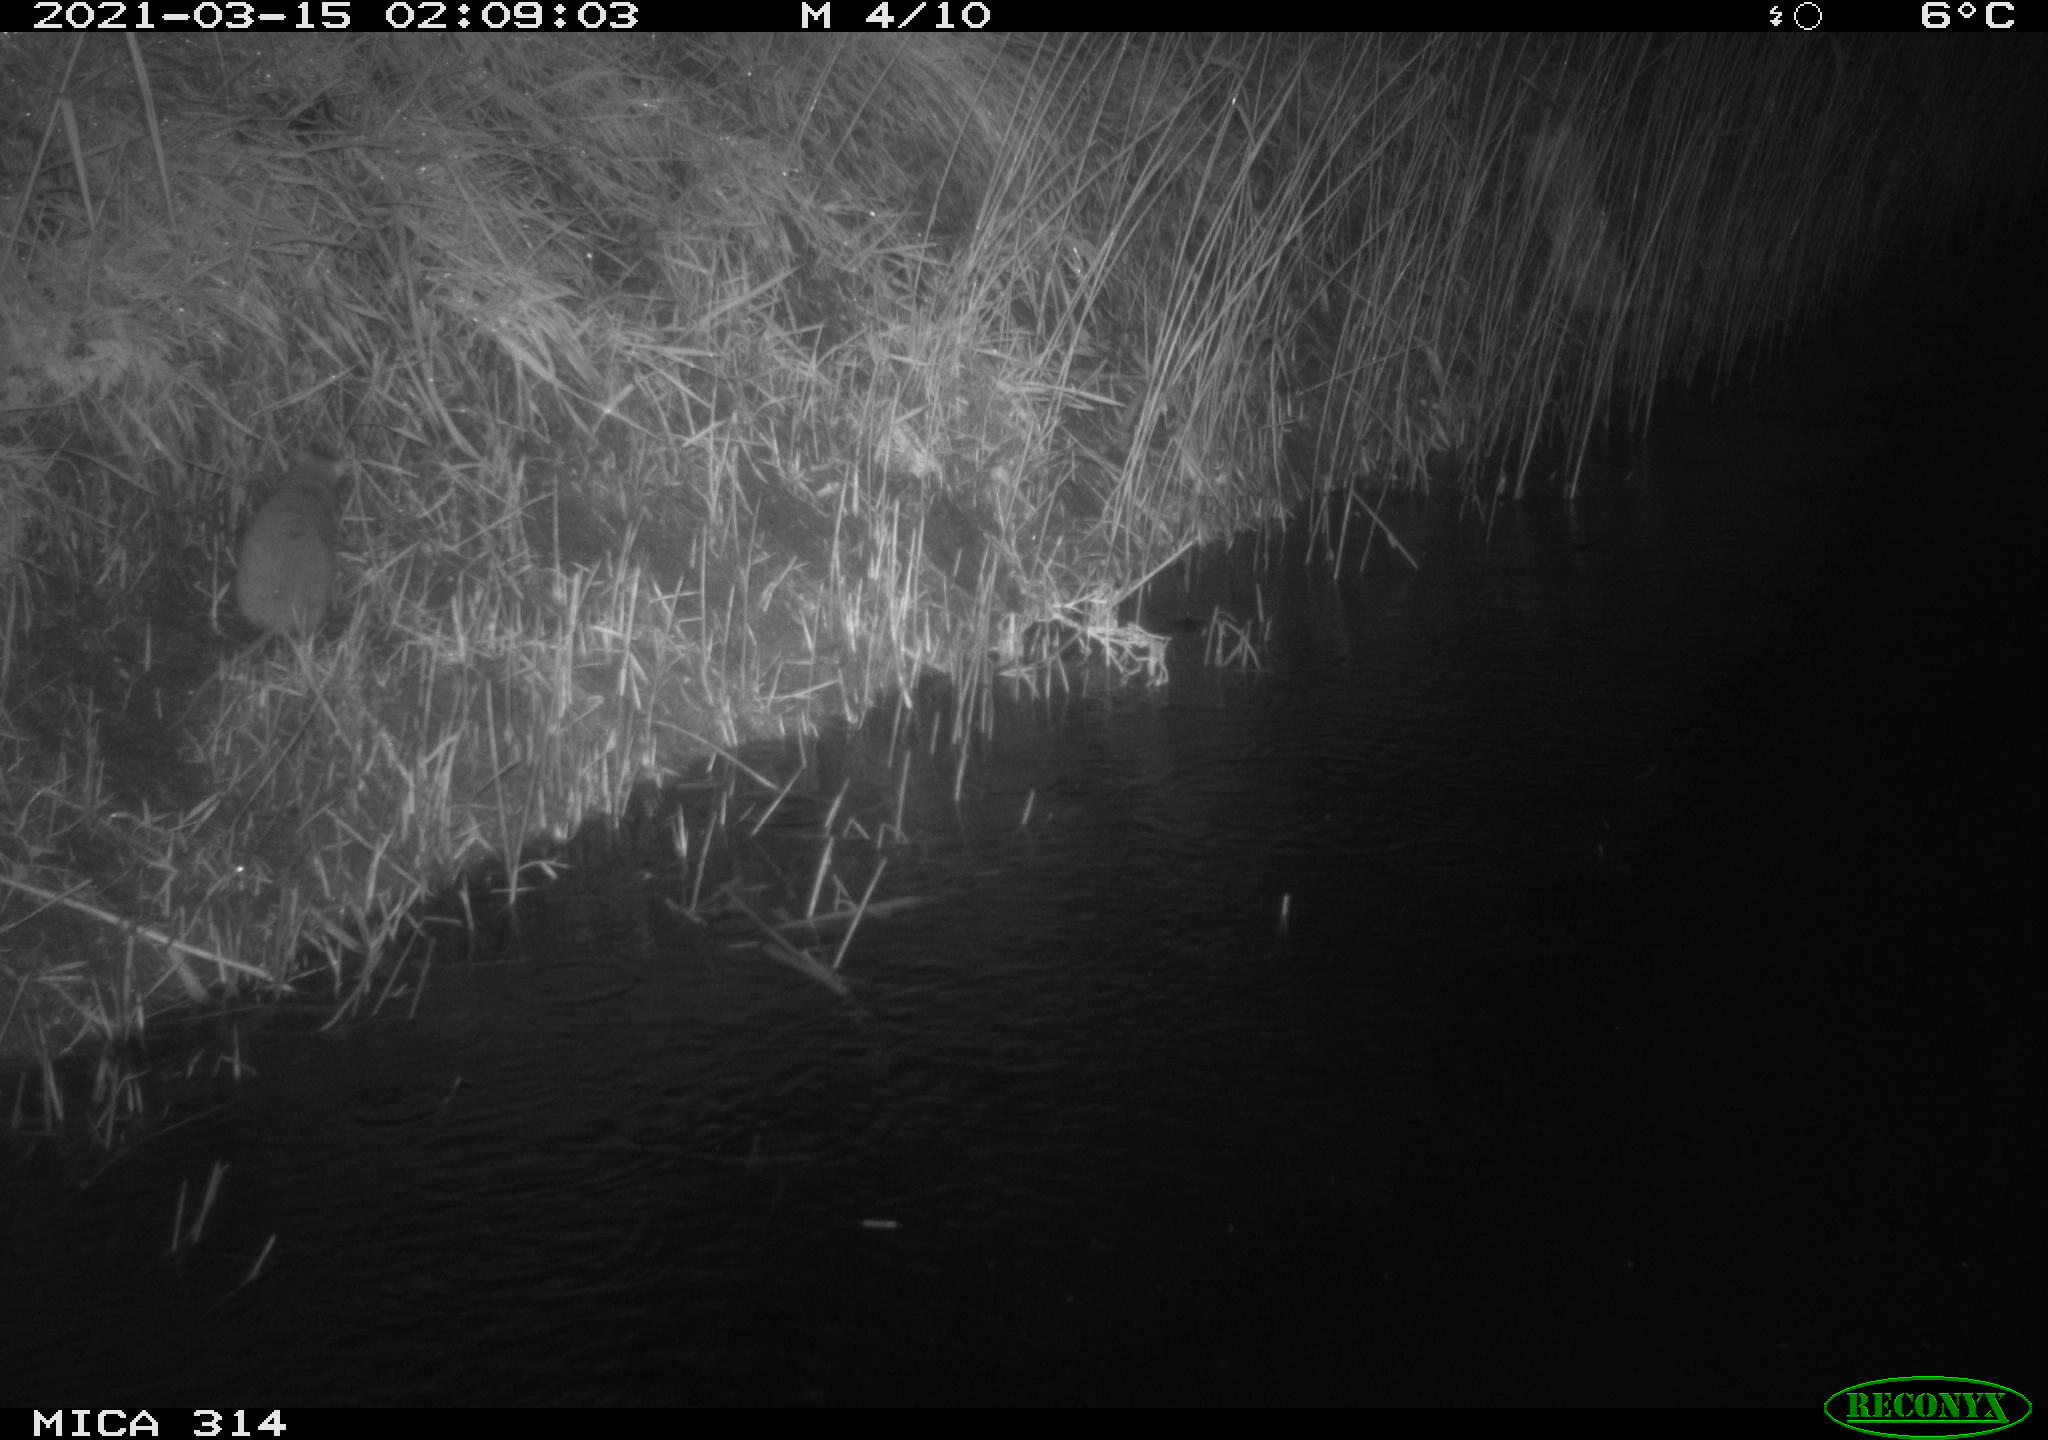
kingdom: Animalia
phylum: Chordata
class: Mammalia
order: Rodentia
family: Muridae
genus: Rattus
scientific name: Rattus norvegicus
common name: Brown rat
